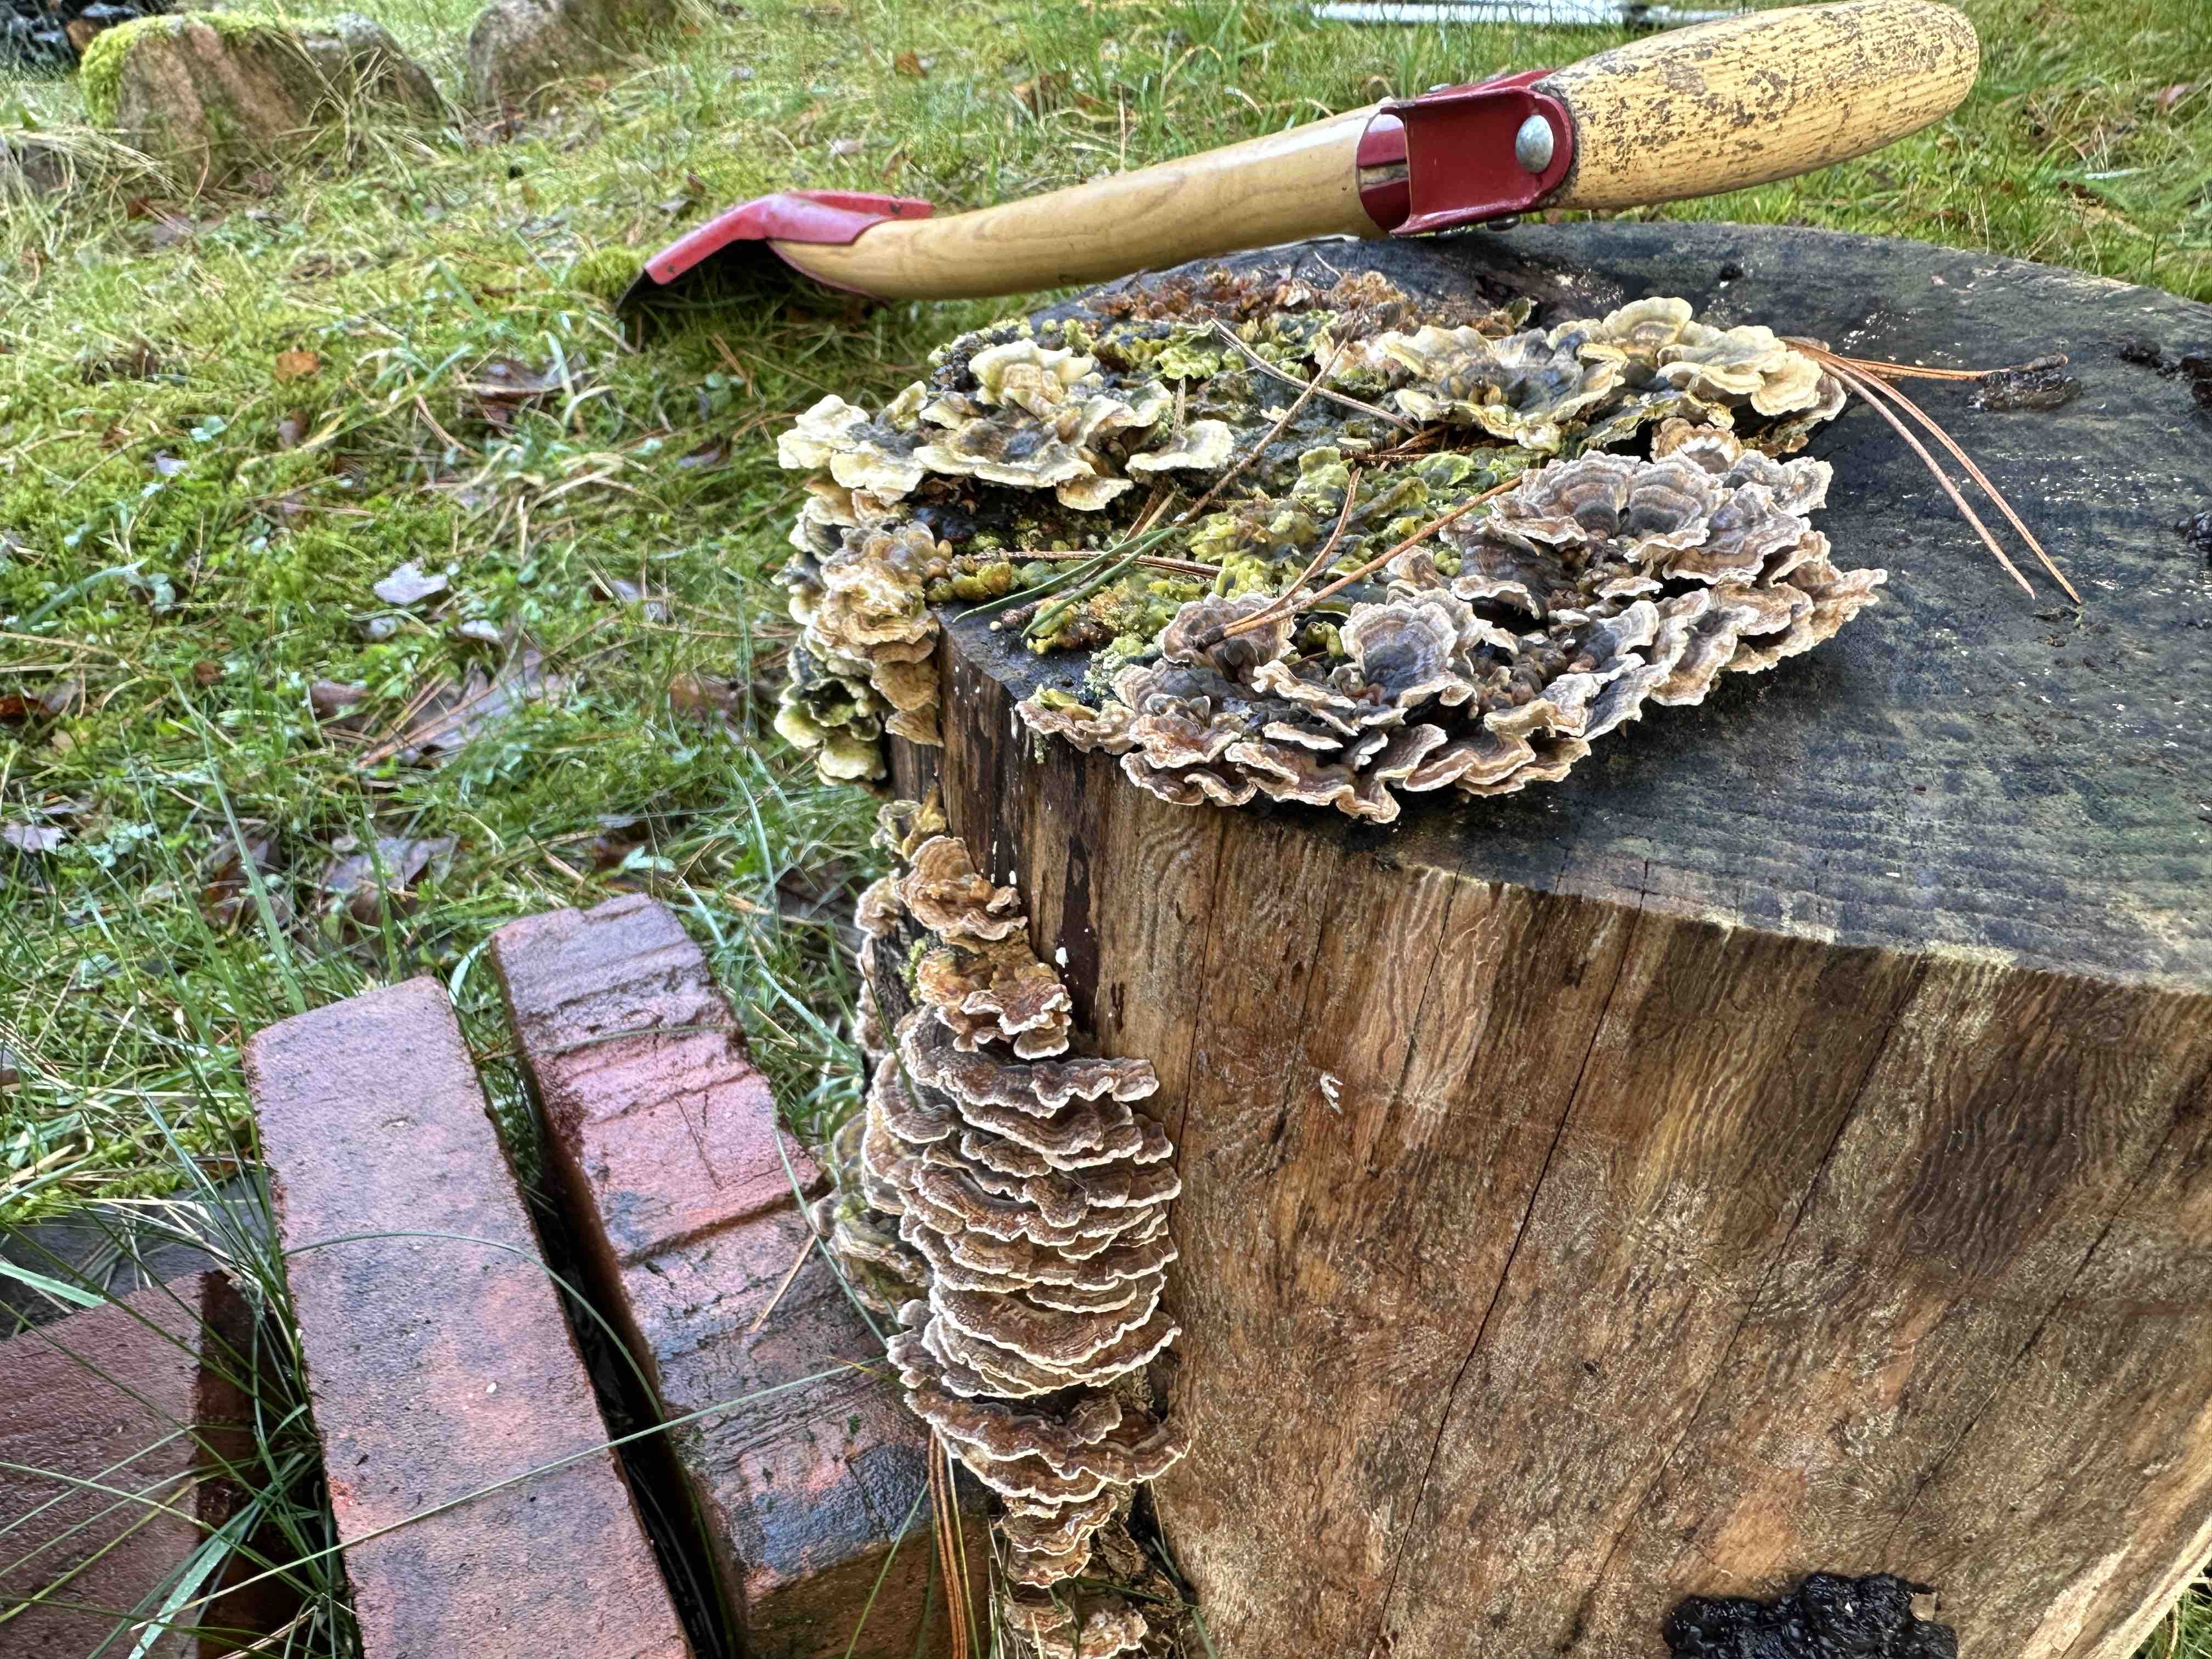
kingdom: Fungi
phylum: Basidiomycota
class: Agaricomycetes
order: Polyporales
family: Polyporaceae
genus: Trametes
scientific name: Trametes versicolor
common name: broget læderporesvamp
